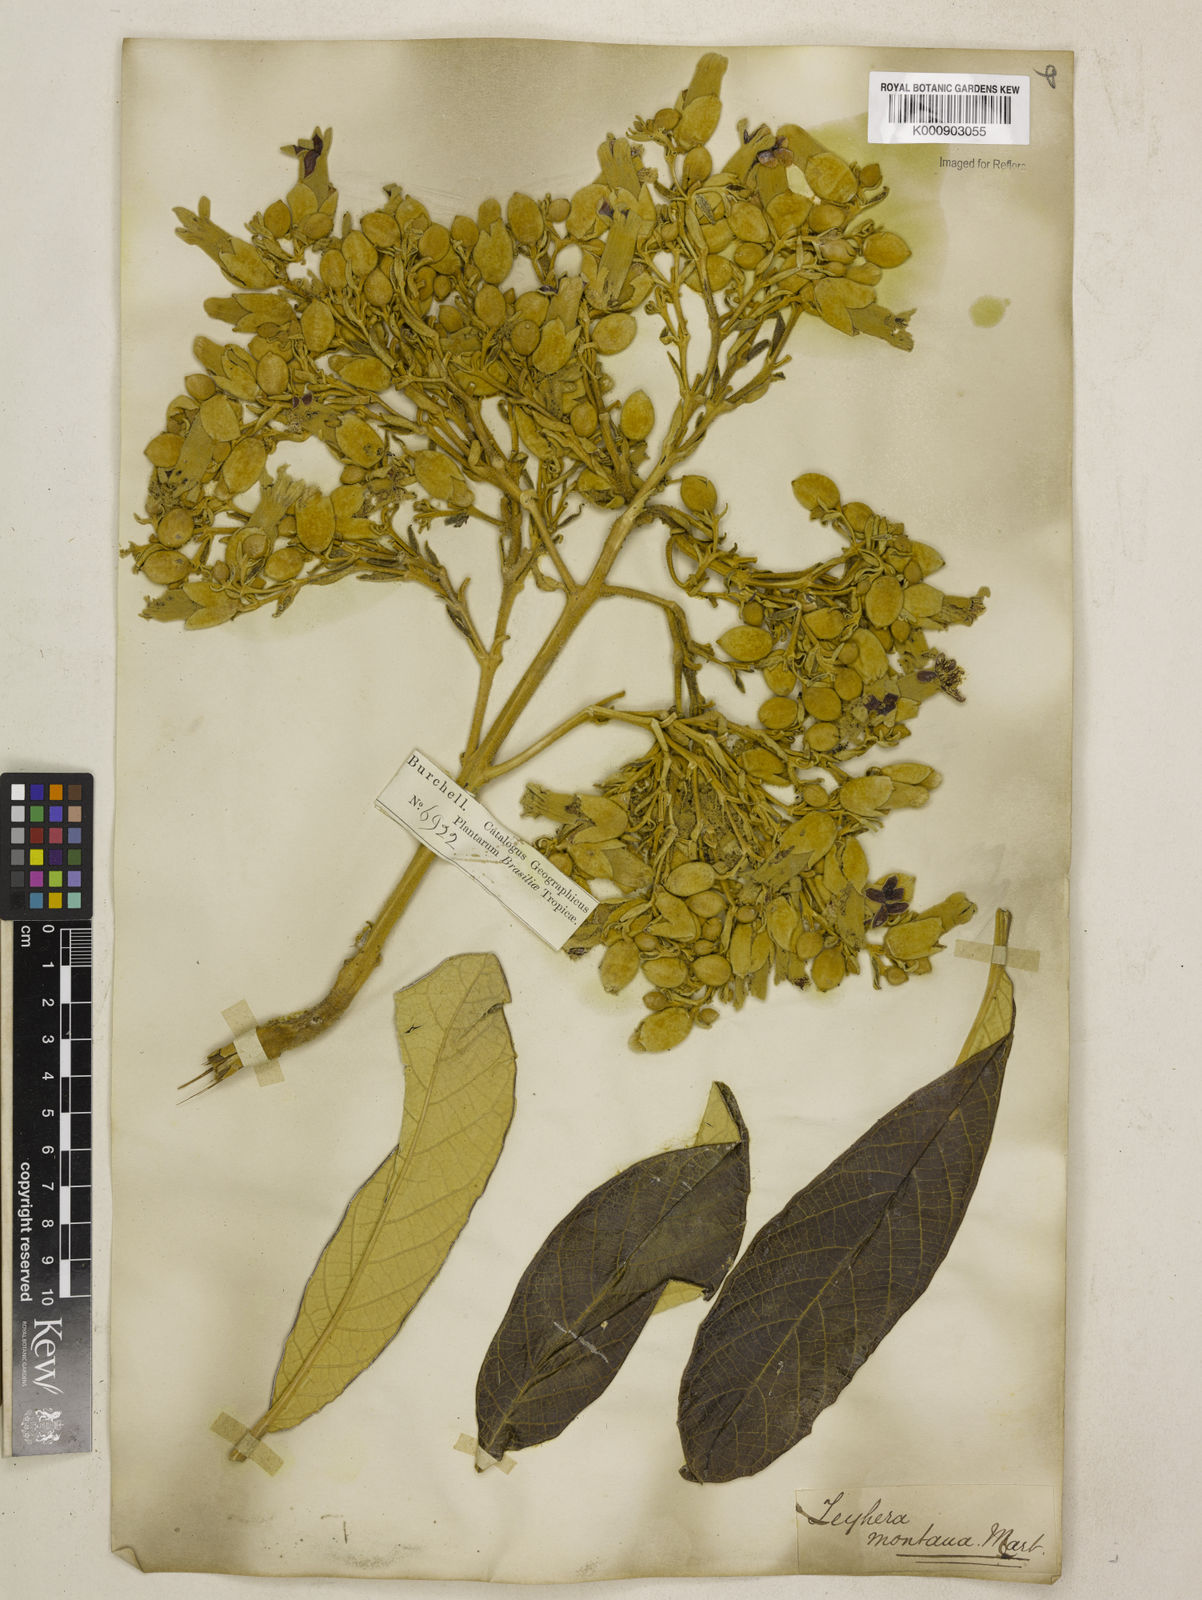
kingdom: Plantae
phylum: Tracheophyta
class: Magnoliopsida
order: Lamiales
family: Bignoniaceae
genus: Zeyheria
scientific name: Zeyheria
